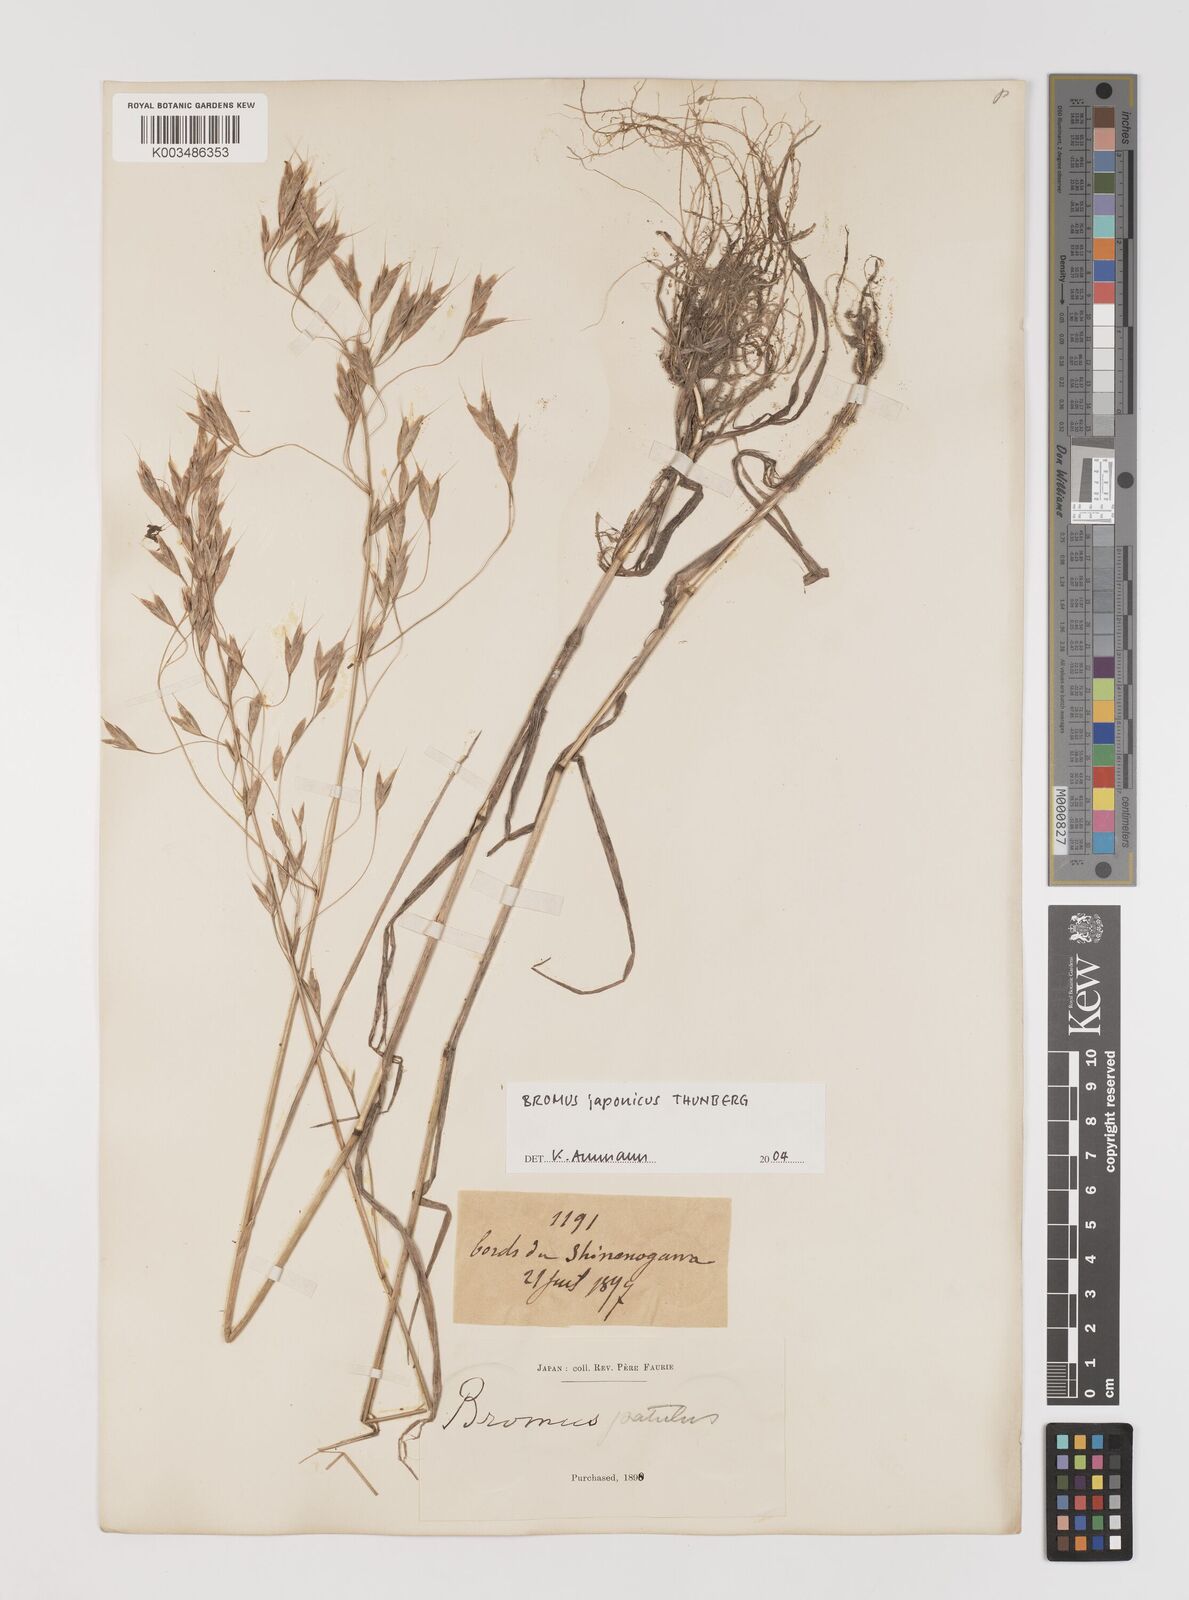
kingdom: Plantae
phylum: Tracheophyta
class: Liliopsida
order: Poales
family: Poaceae
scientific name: Poaceae
